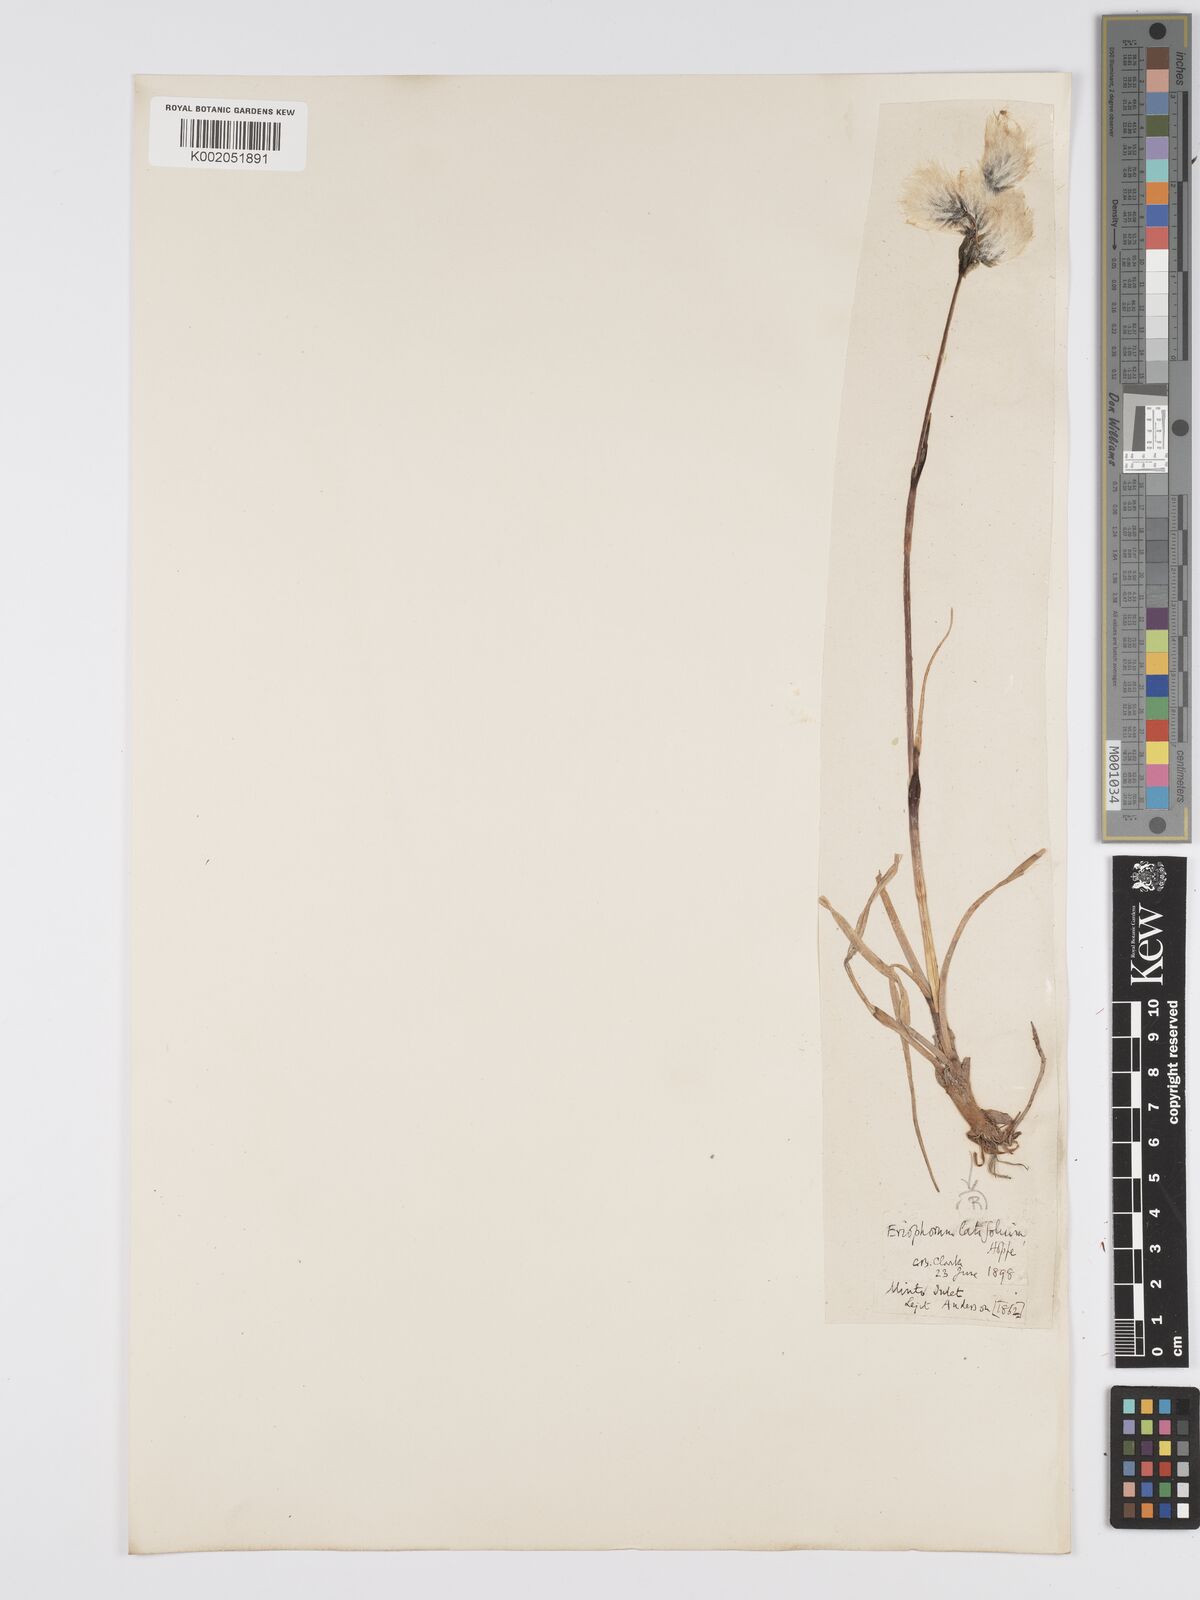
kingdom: Plantae
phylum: Tracheophyta
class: Liliopsida
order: Poales
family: Cyperaceae
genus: Eriophorum
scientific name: Eriophorum latifolium
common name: Broad-leaved cottongrass
